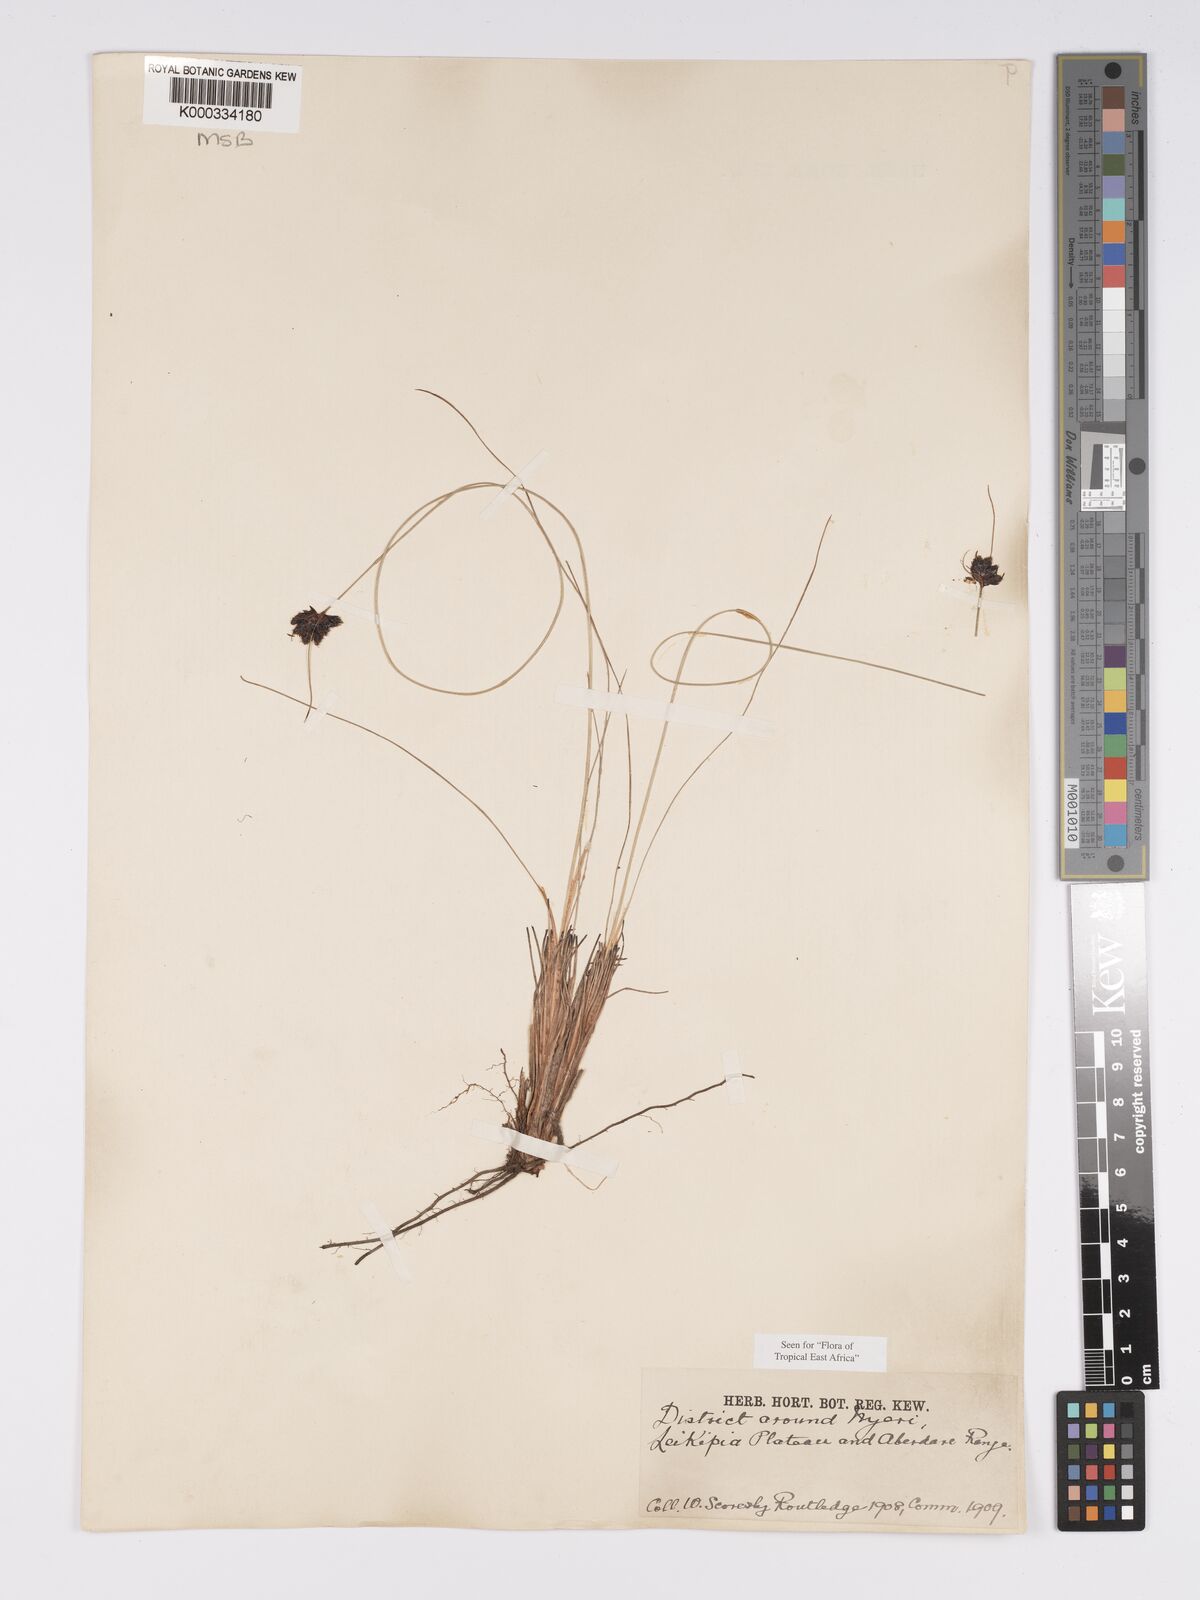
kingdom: Plantae
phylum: Tracheophyta
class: Liliopsida
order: Poales
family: Cyperaceae
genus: Bulbostylis
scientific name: Bulbostylis atrosanguinea
